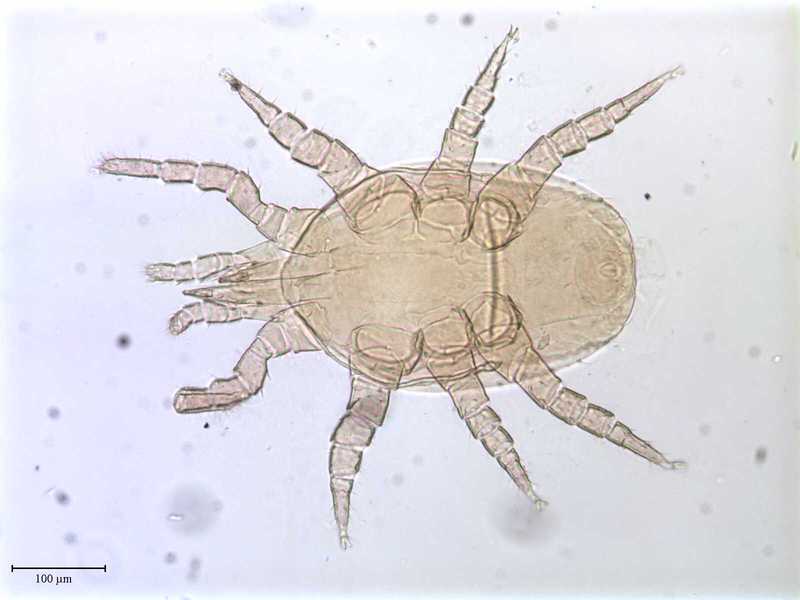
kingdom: Animalia
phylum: Arthropoda
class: Arachnida
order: Mesostigmata
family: Halolaelapidae
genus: Saprolaelaps
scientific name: Saprolaelaps
